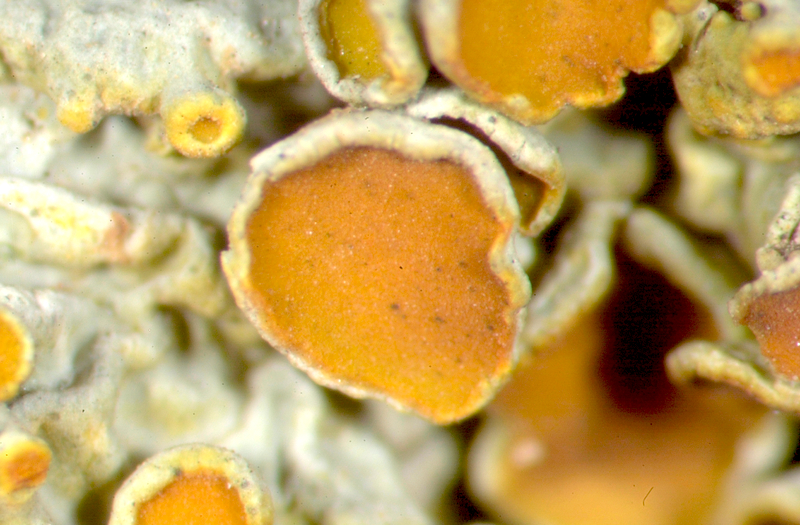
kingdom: Fungi
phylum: Ascomycota
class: Lecanoromycetes
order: Teloschistales
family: Teloschistaceae
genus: Dufourea
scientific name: Dufourea bonae-spei
